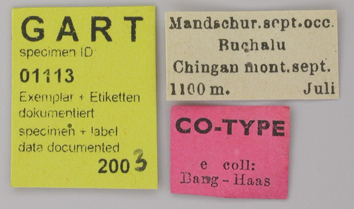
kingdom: Animalia
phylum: Arthropoda
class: Insecta
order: Lepidoptera
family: Papilionidae
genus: Parnassius
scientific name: Parnassius bremeri
